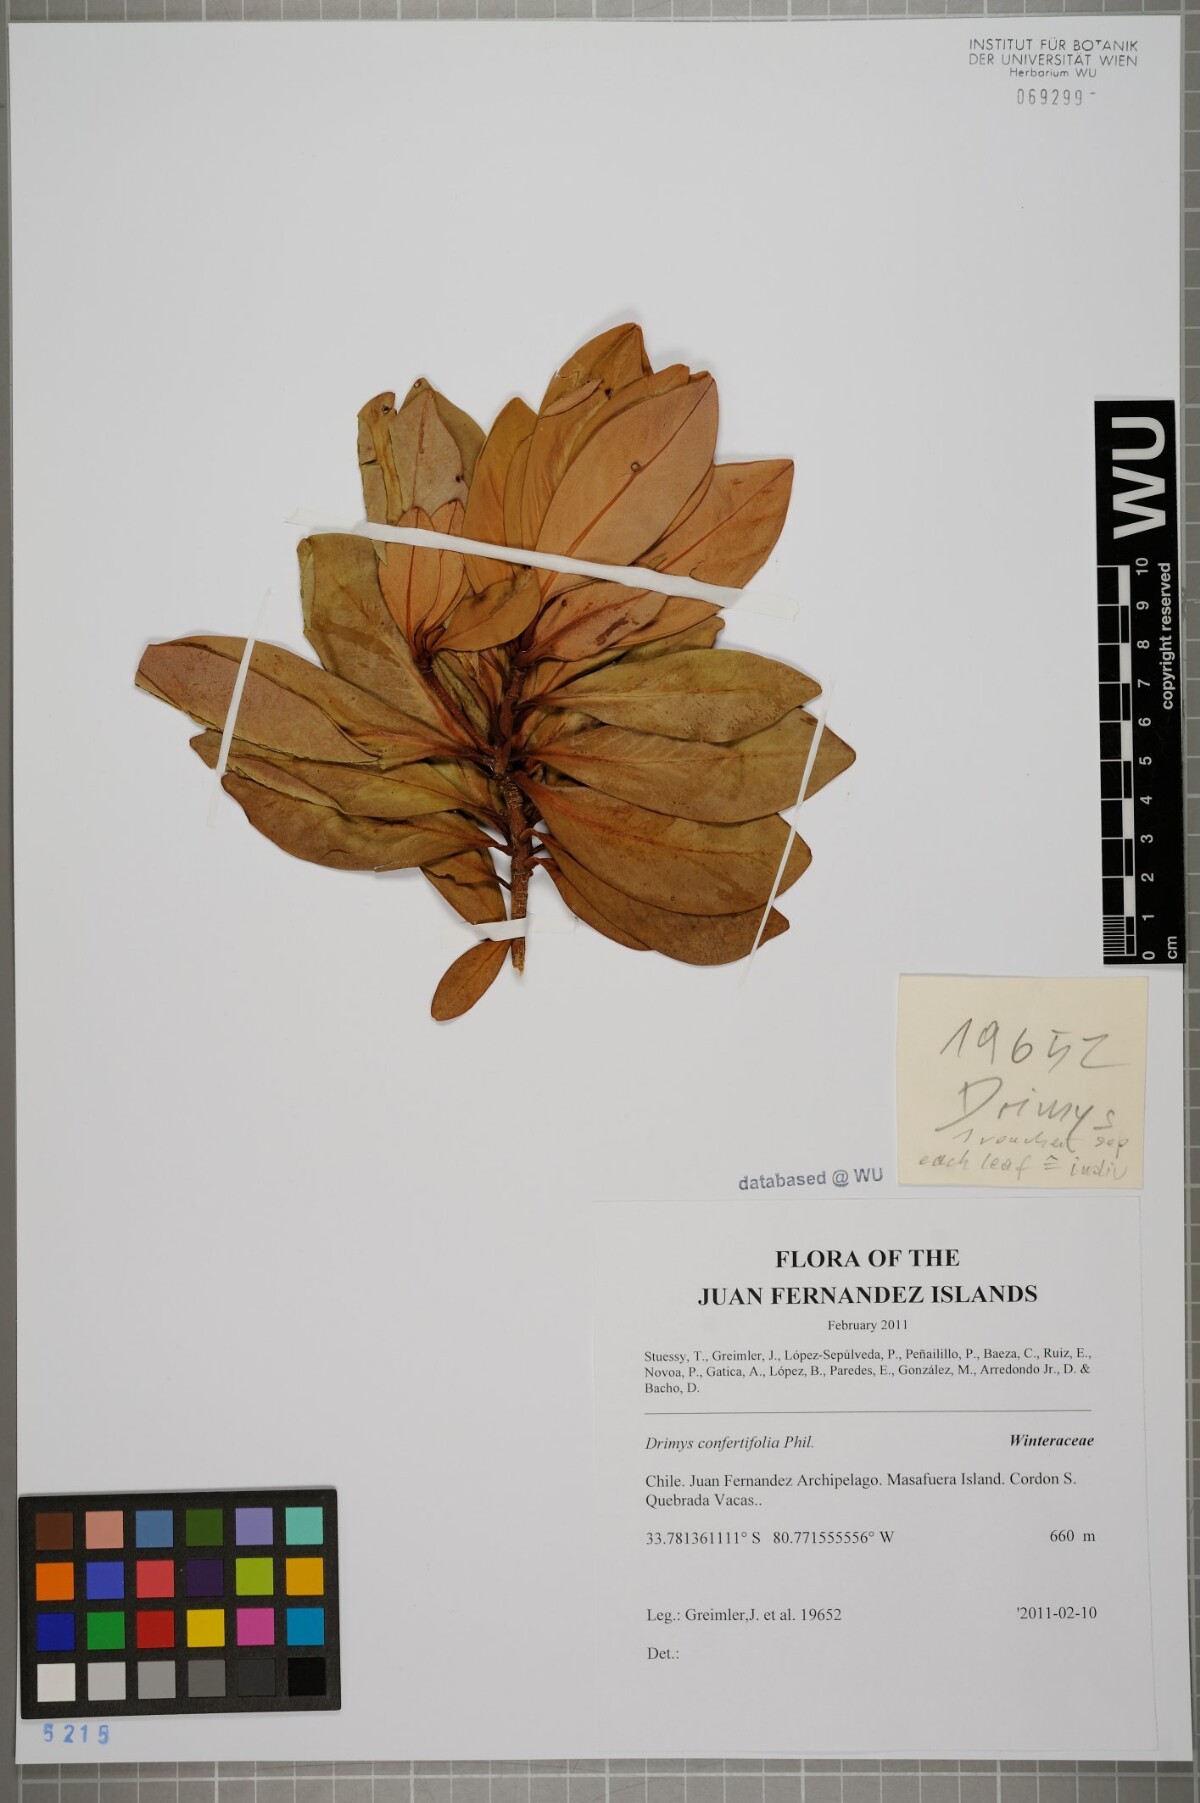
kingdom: Plantae
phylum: Tracheophyta
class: Magnoliopsida
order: Canellales
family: Winteraceae
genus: Drimys
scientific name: Drimys confertiflora
